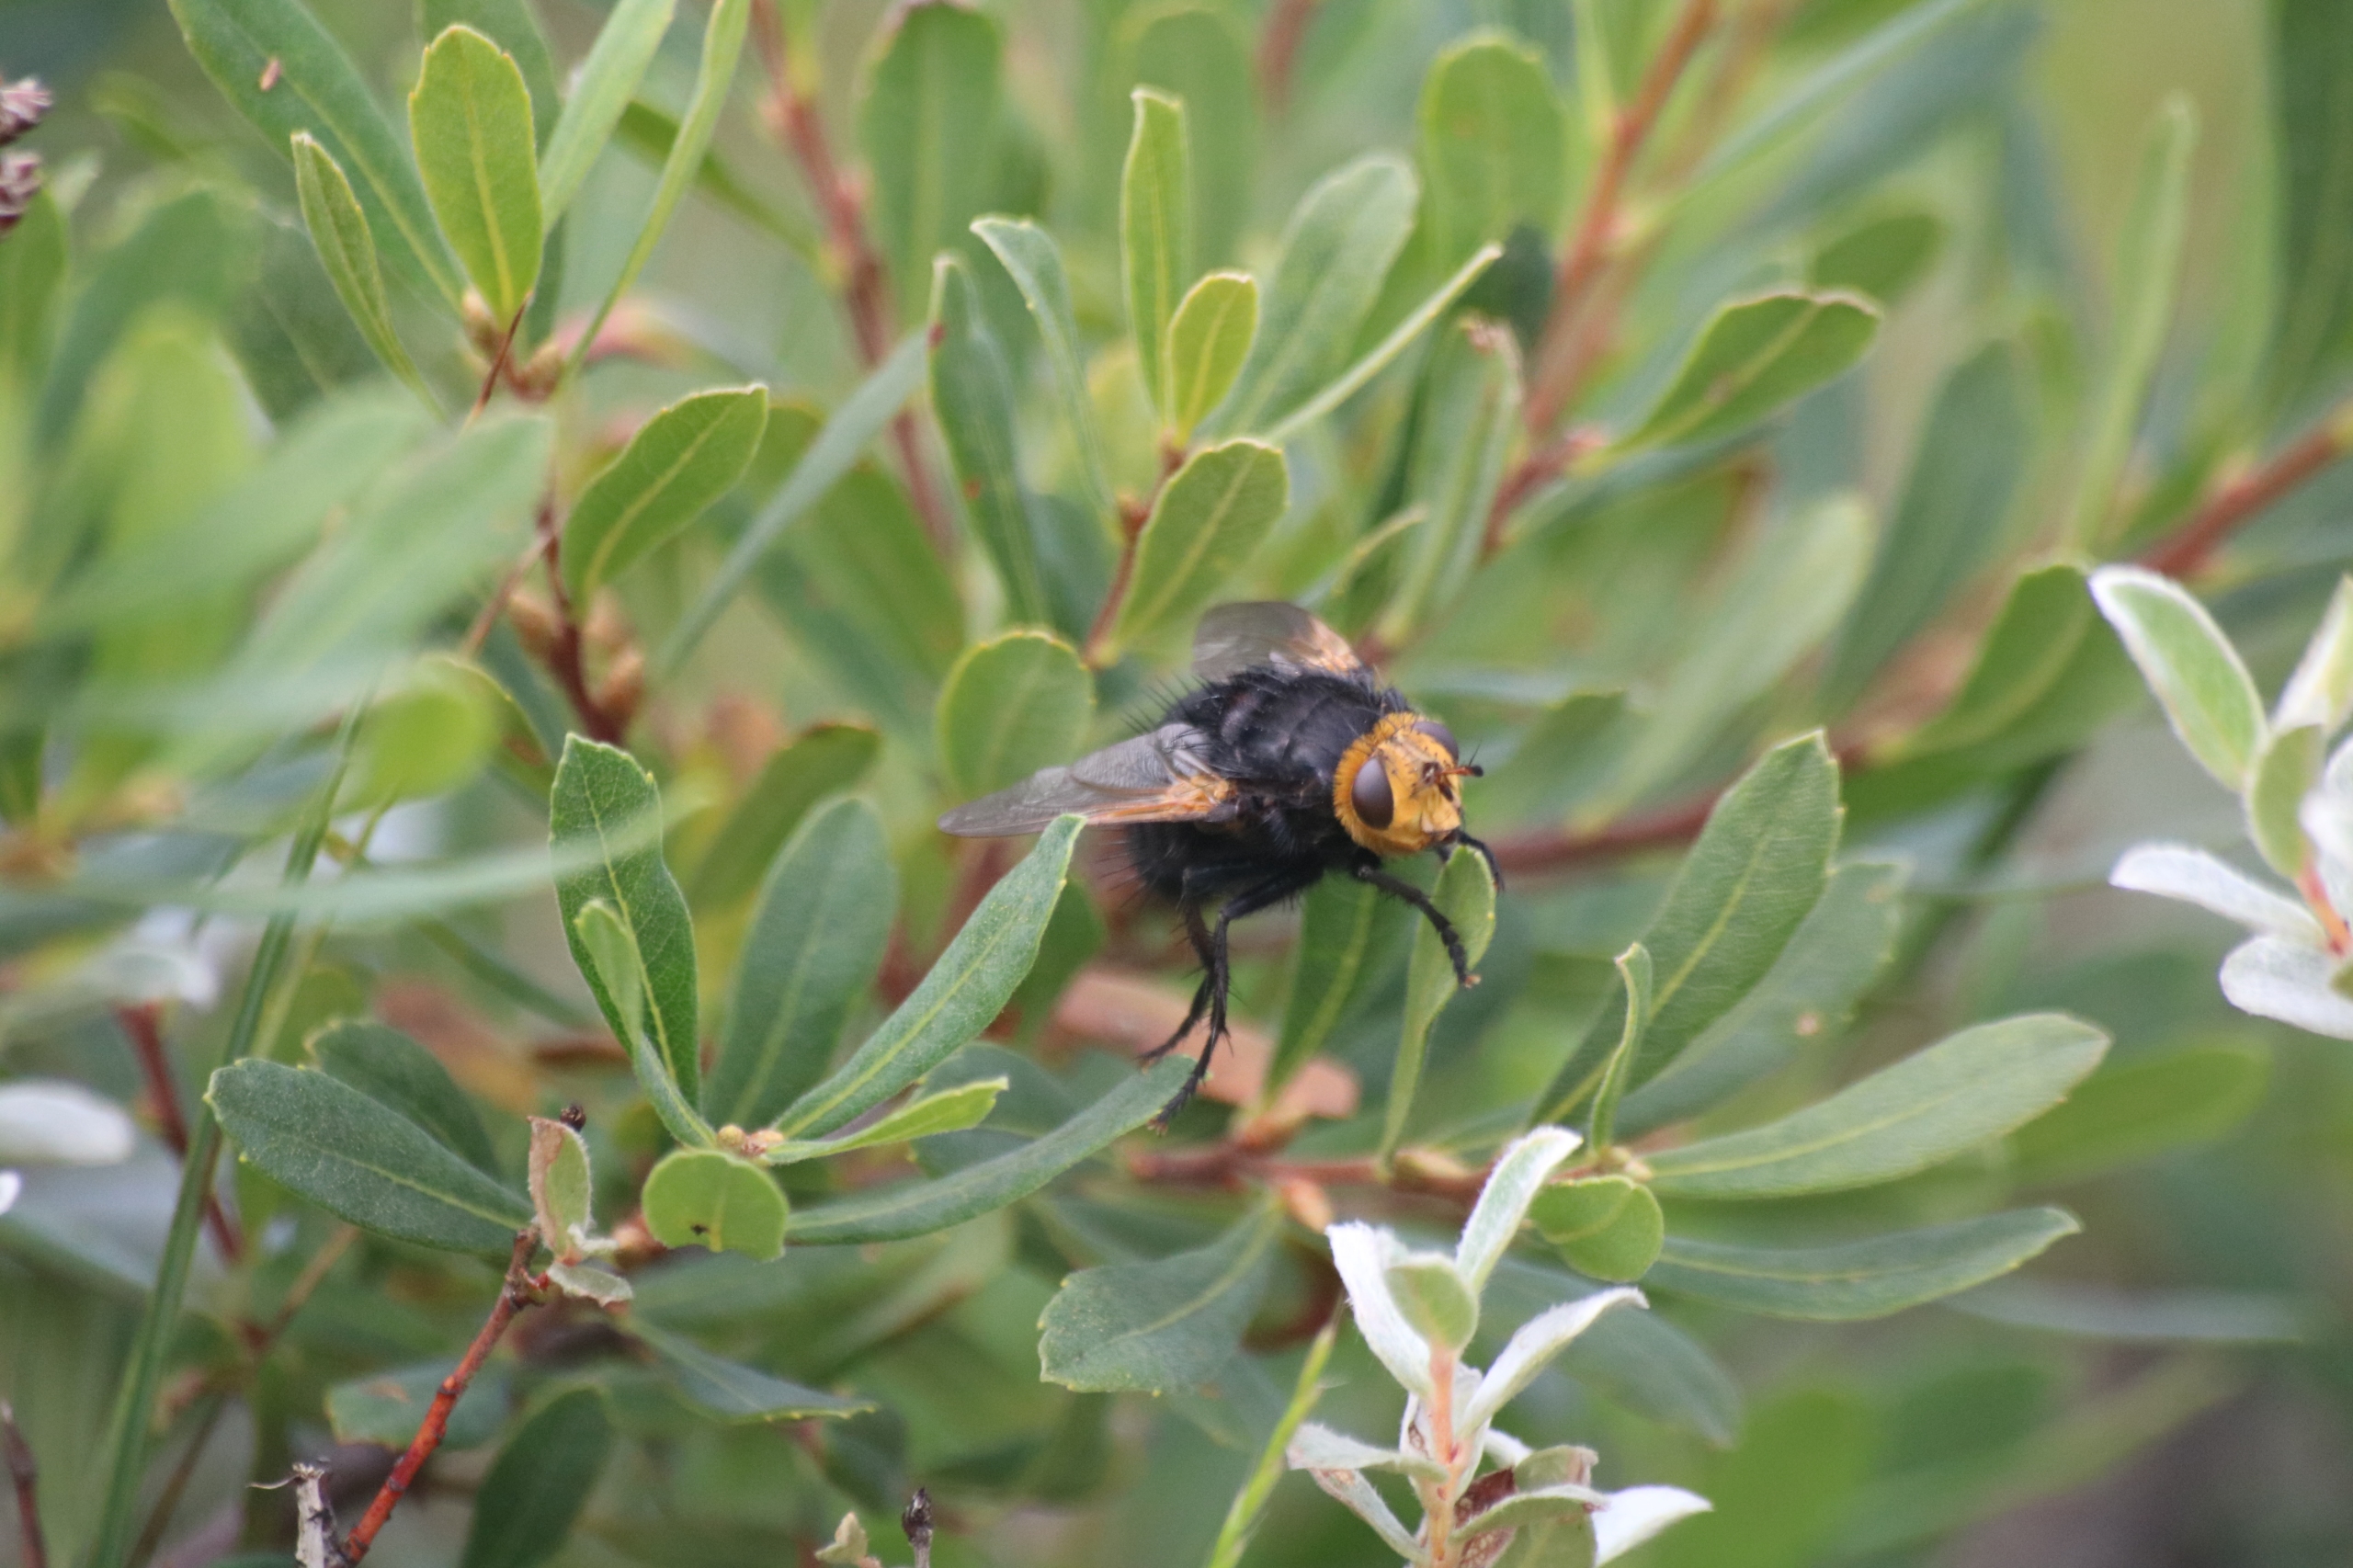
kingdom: Animalia
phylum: Arthropoda
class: Insecta
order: Diptera
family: Tachinidae
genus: Tachina
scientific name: Tachina grossa
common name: Kæmpefluen Harald
